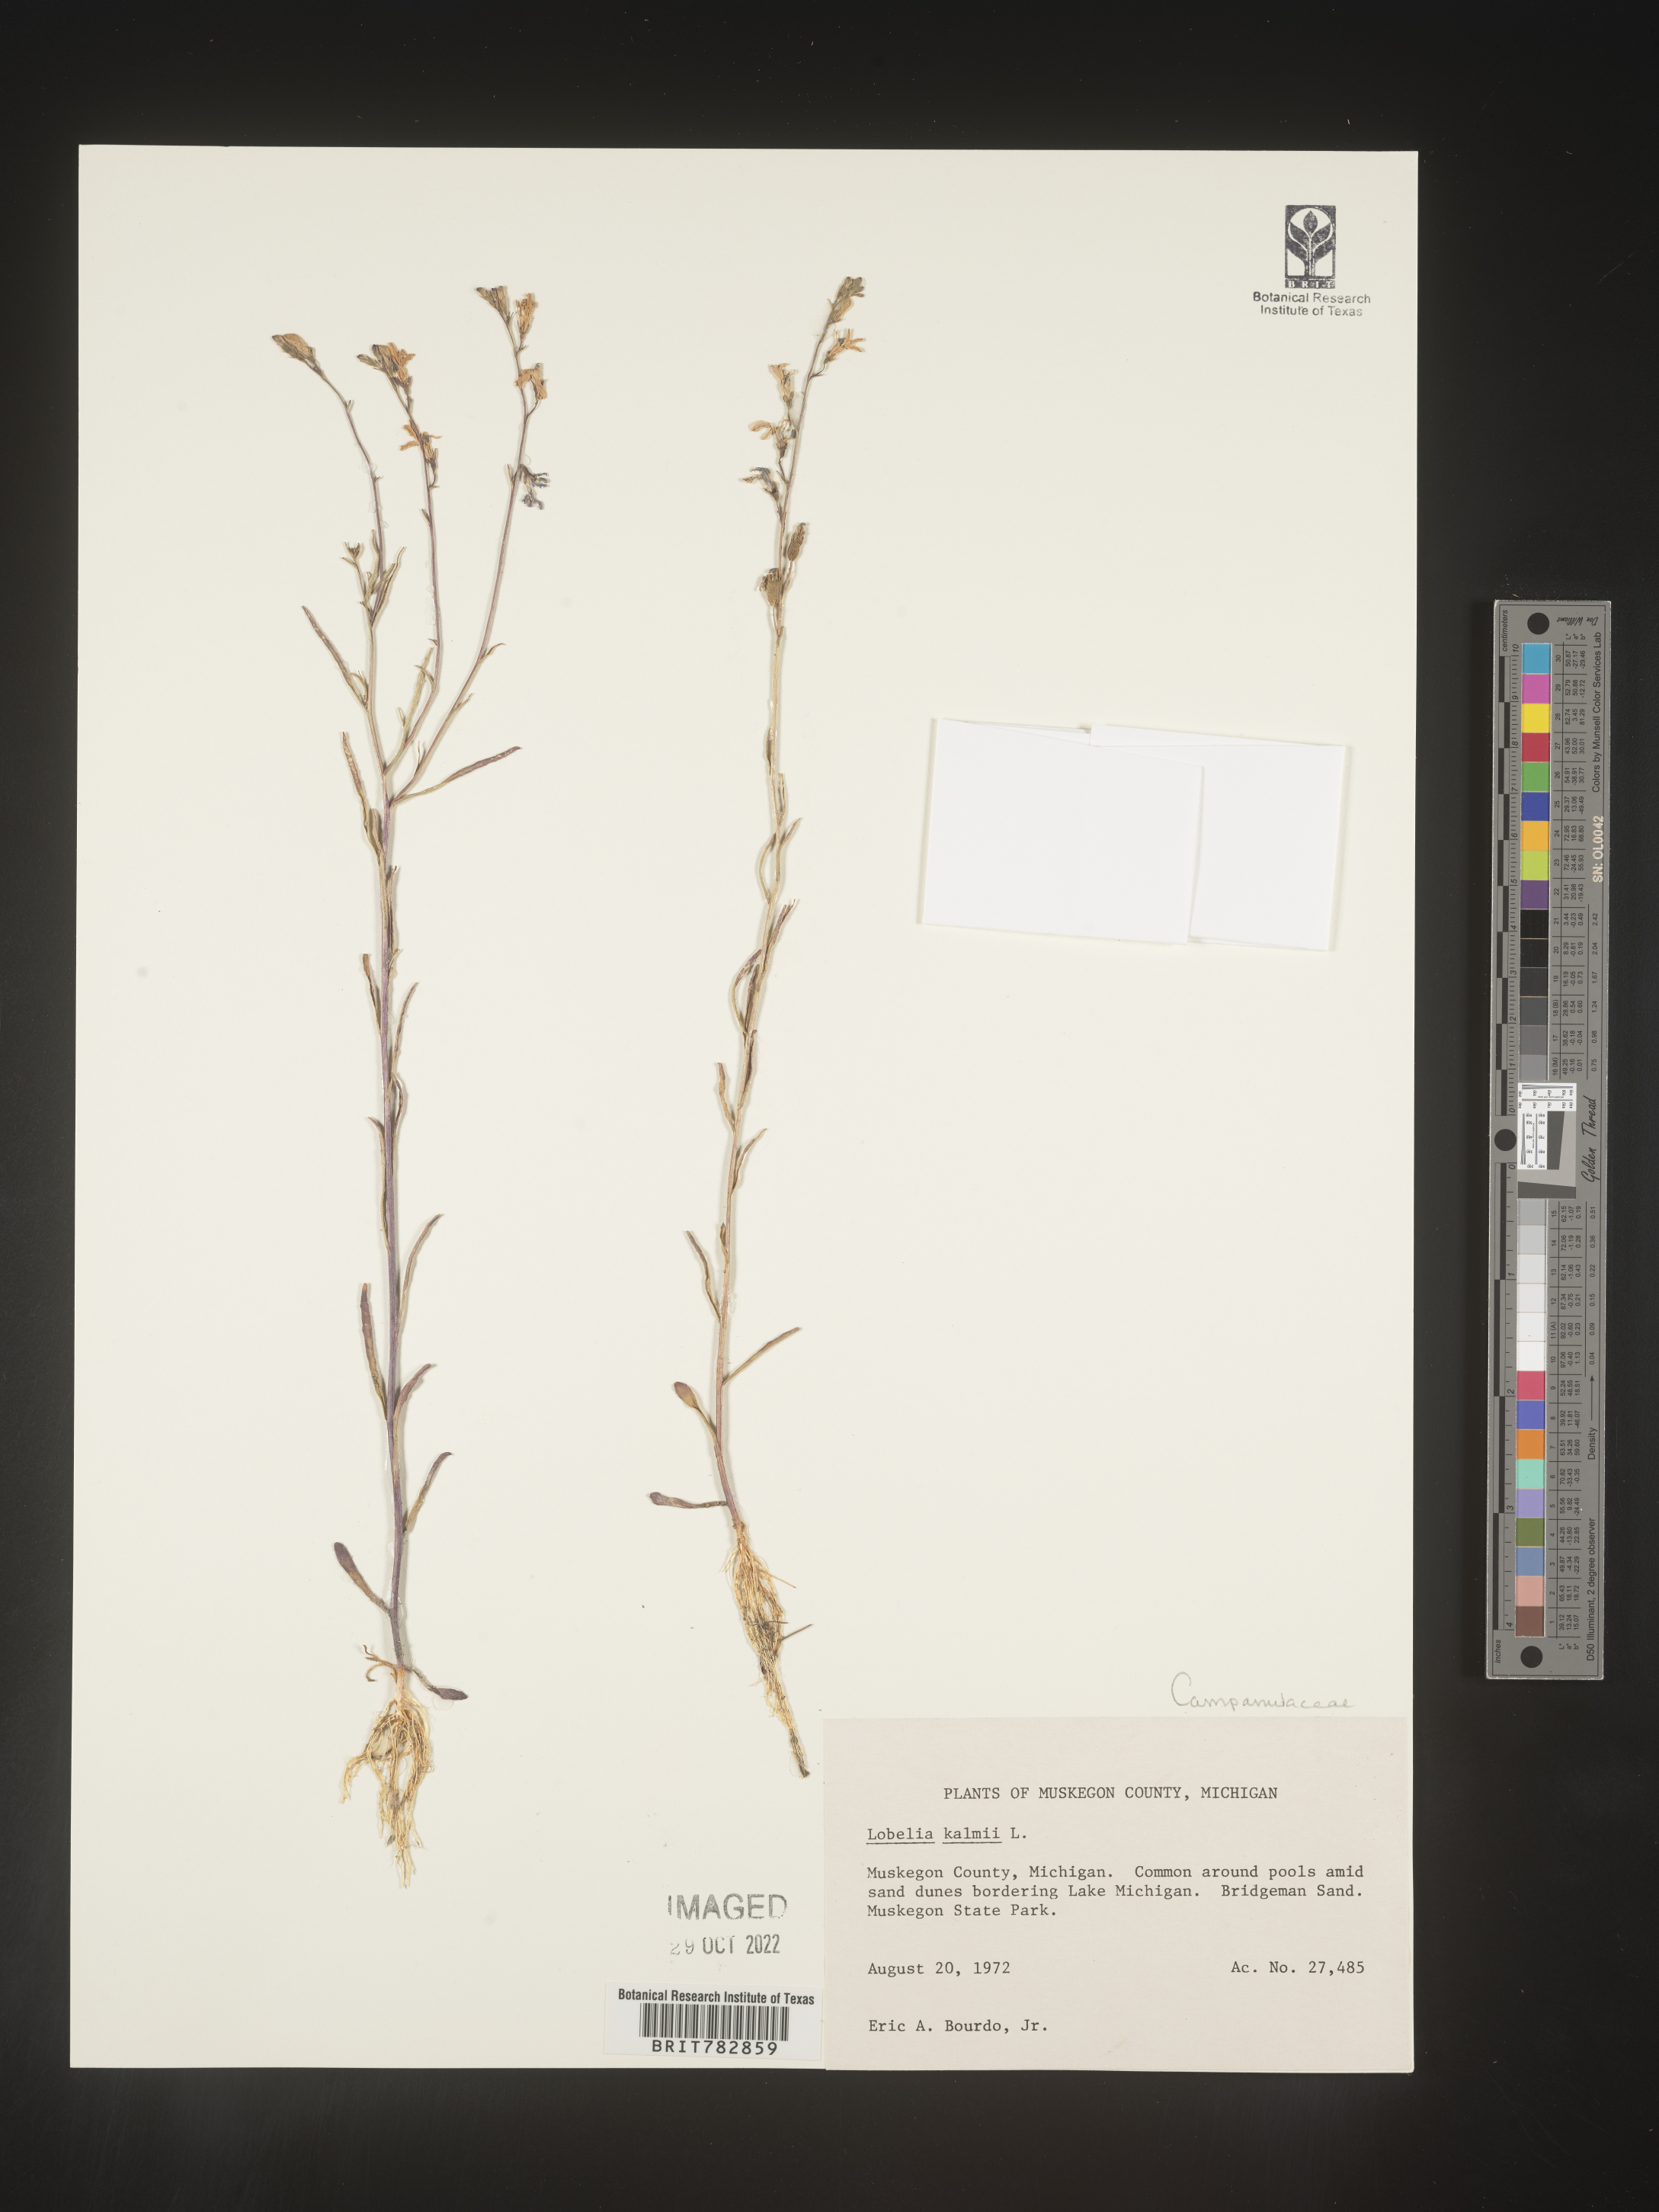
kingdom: Plantae
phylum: Tracheophyta
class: Magnoliopsida
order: Asterales
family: Campanulaceae
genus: Lobelia
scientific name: Lobelia
